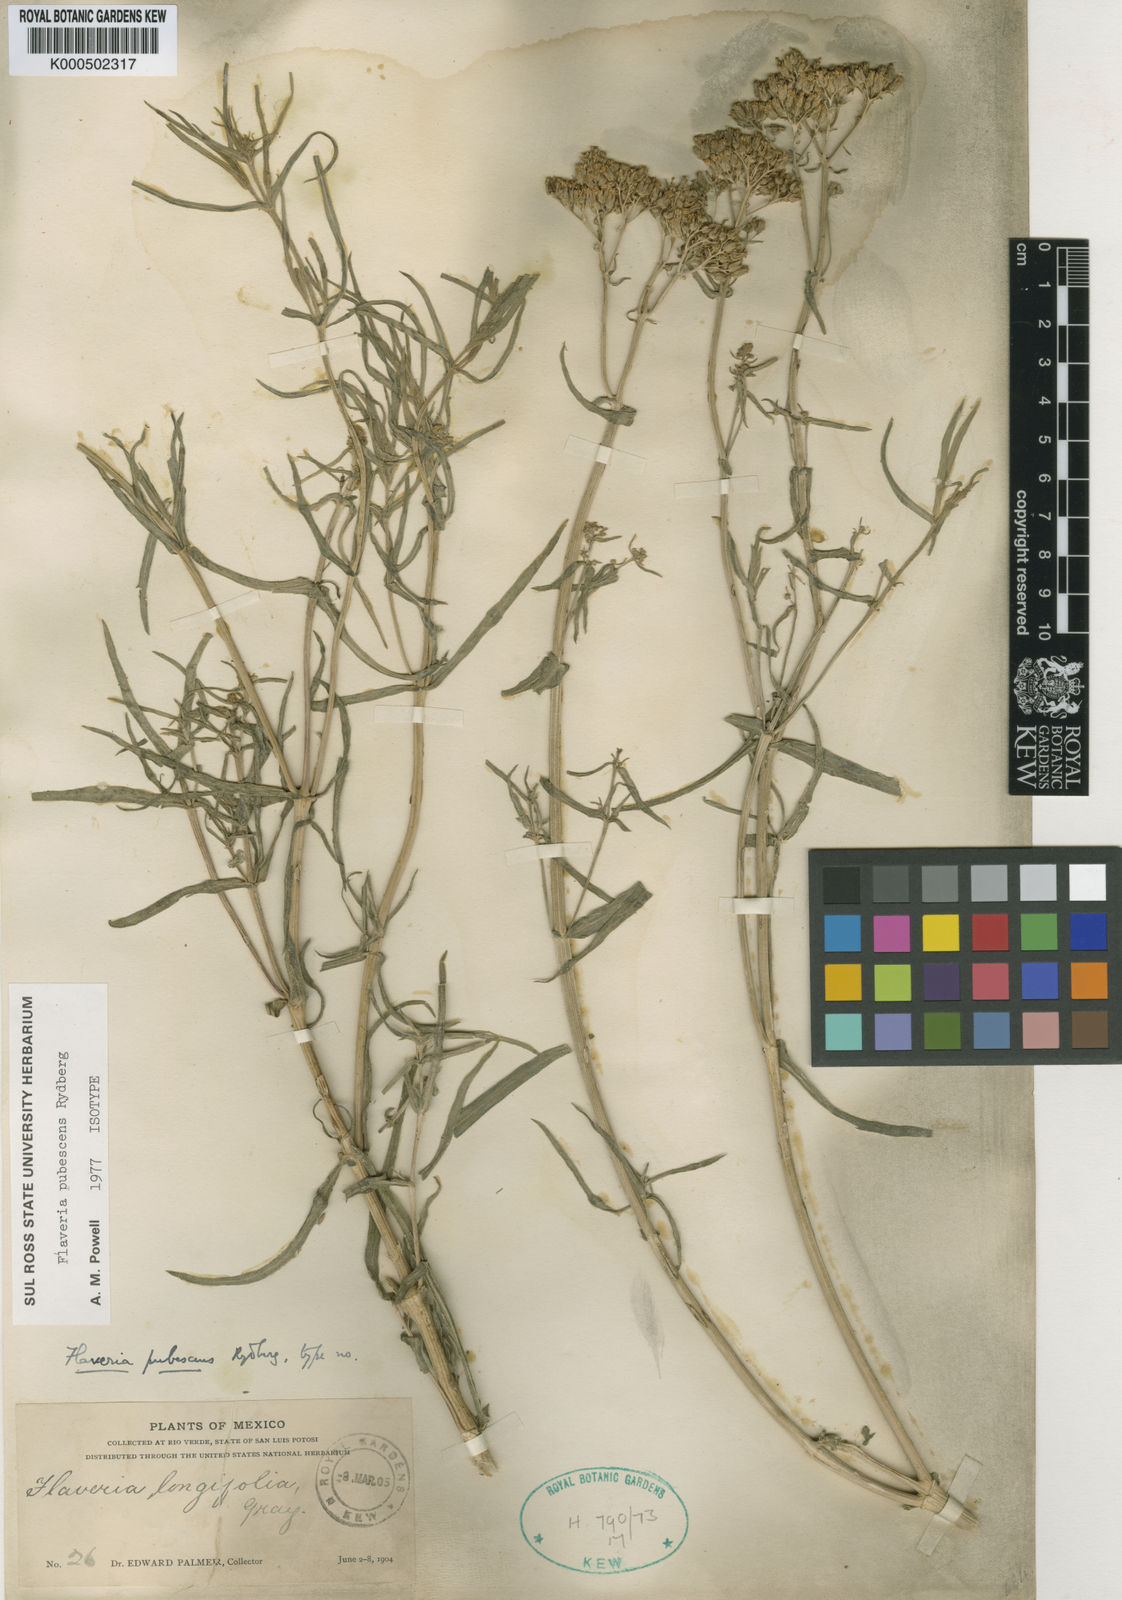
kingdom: Plantae
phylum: Tracheophyta
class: Magnoliopsida
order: Asterales
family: Asteraceae
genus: Flaveria
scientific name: Flaveria pubescens
